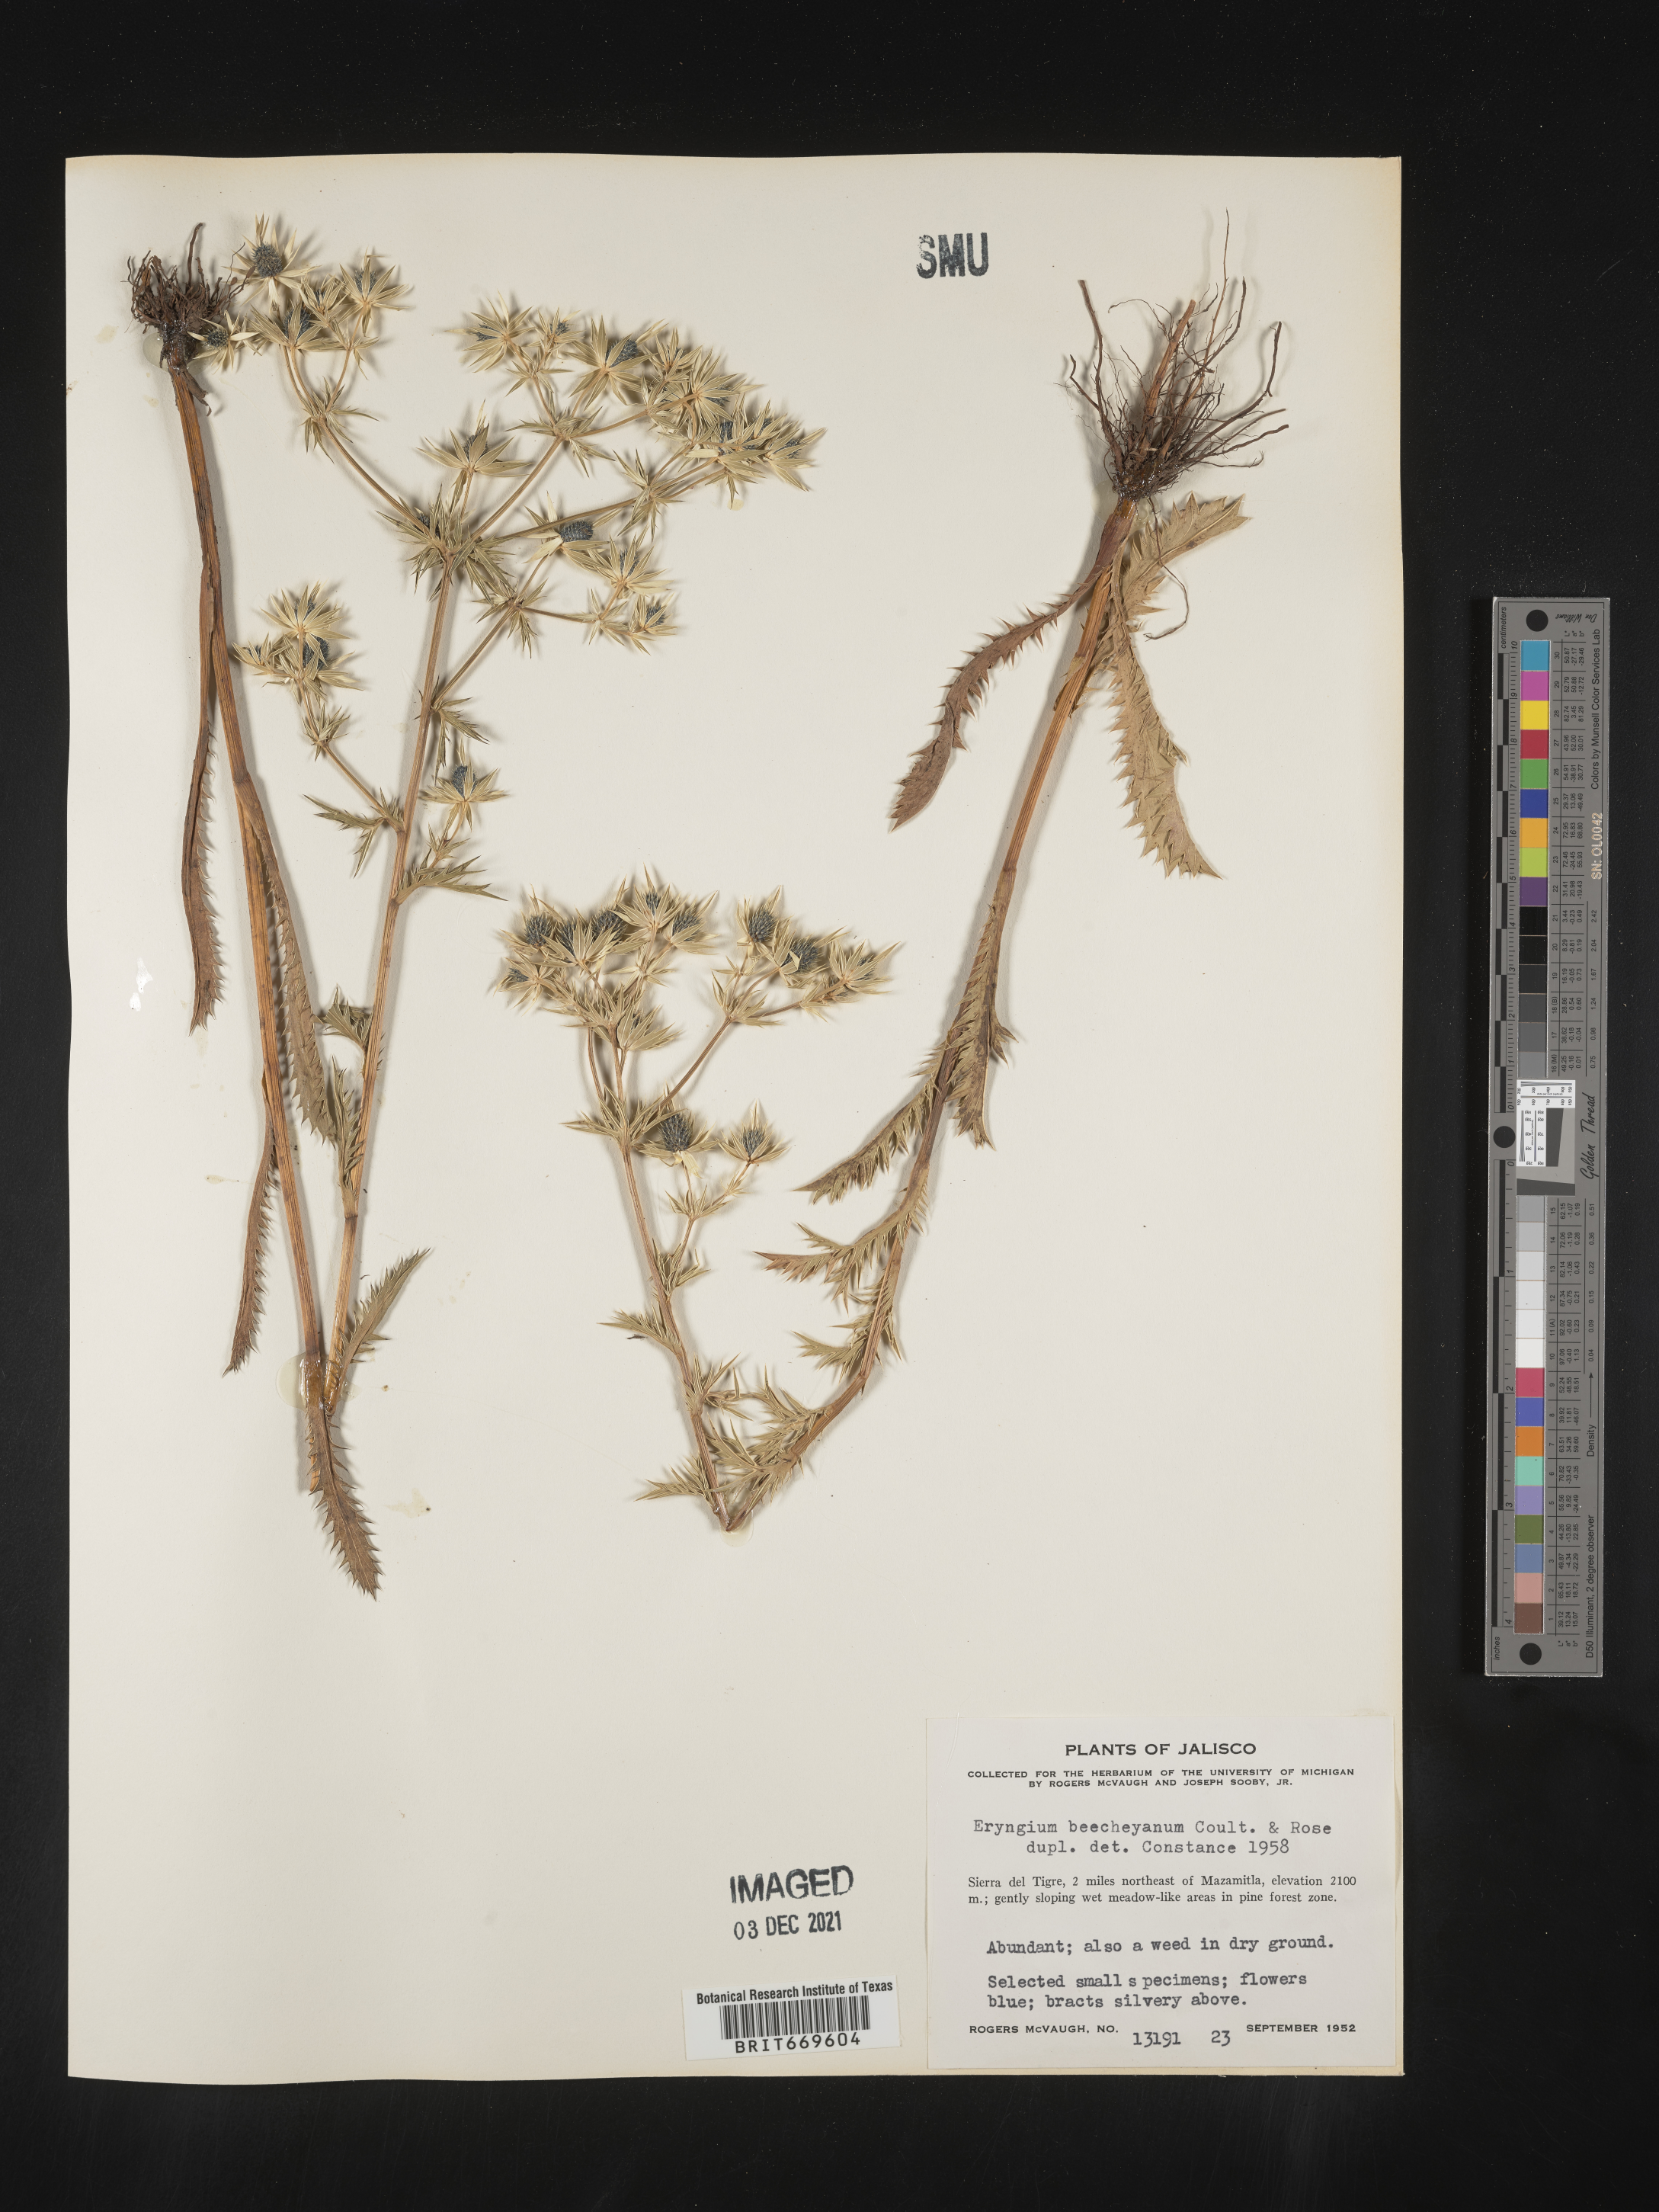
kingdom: Plantae
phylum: Tracheophyta
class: Magnoliopsida
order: Apiales
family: Apiaceae
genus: Eryngium
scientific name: Eryngium
